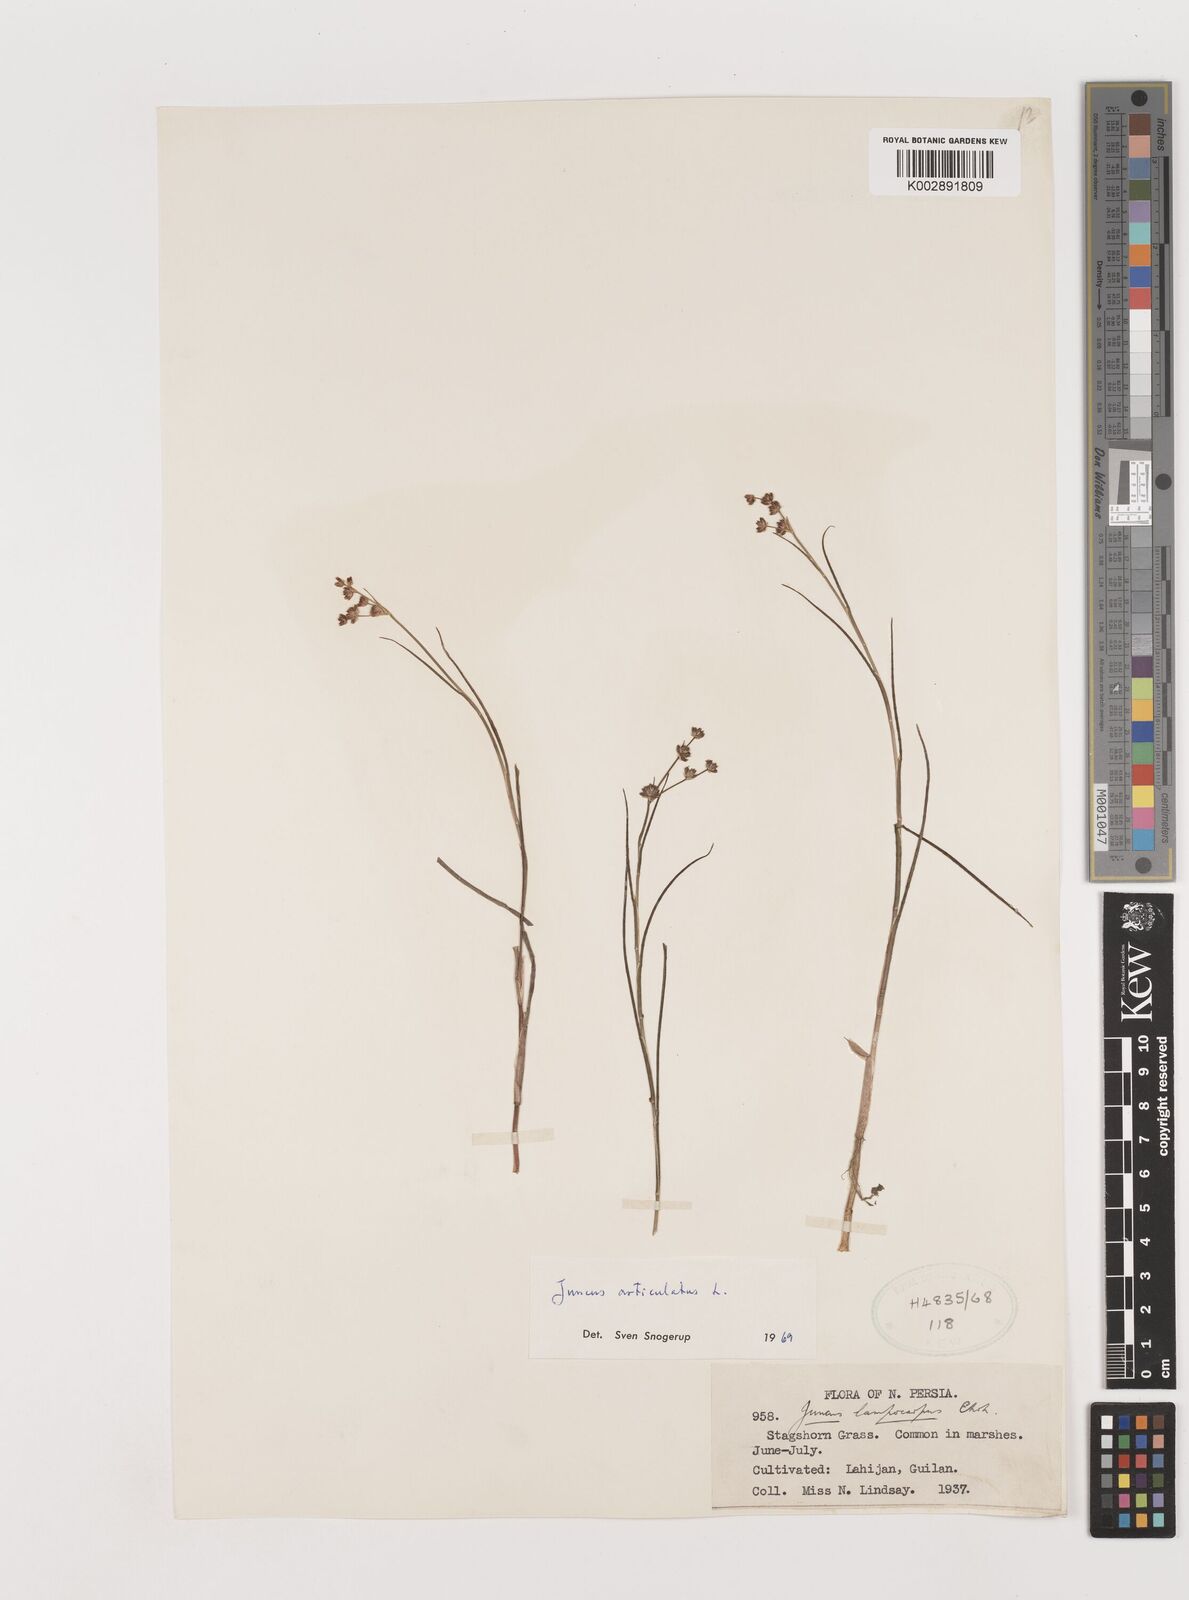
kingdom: Plantae
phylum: Tracheophyta
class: Liliopsida
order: Poales
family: Juncaceae
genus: Juncus
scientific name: Juncus articulatus
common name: Jointed rush
